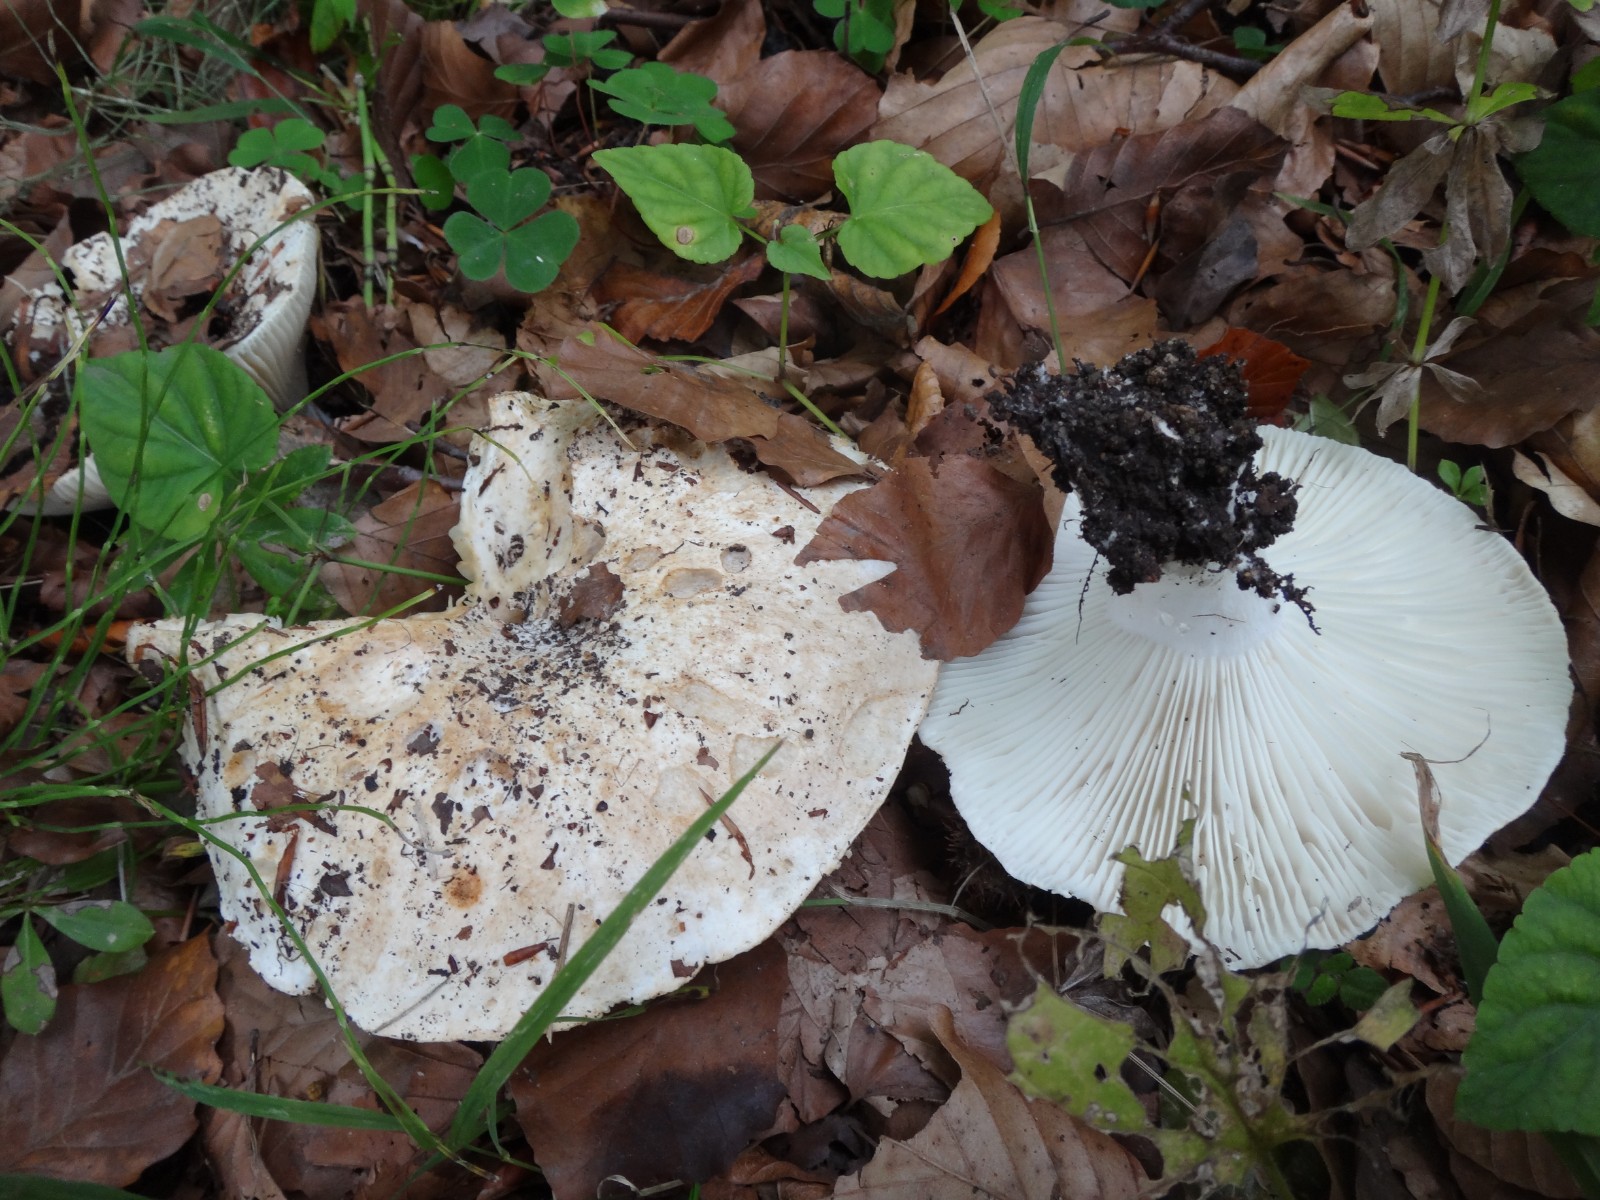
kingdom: Fungi
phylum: Basidiomycota
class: Agaricomycetes
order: Russulales
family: Russulaceae
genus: Russula
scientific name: Russula delica
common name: almindelig tragt-skørhat
